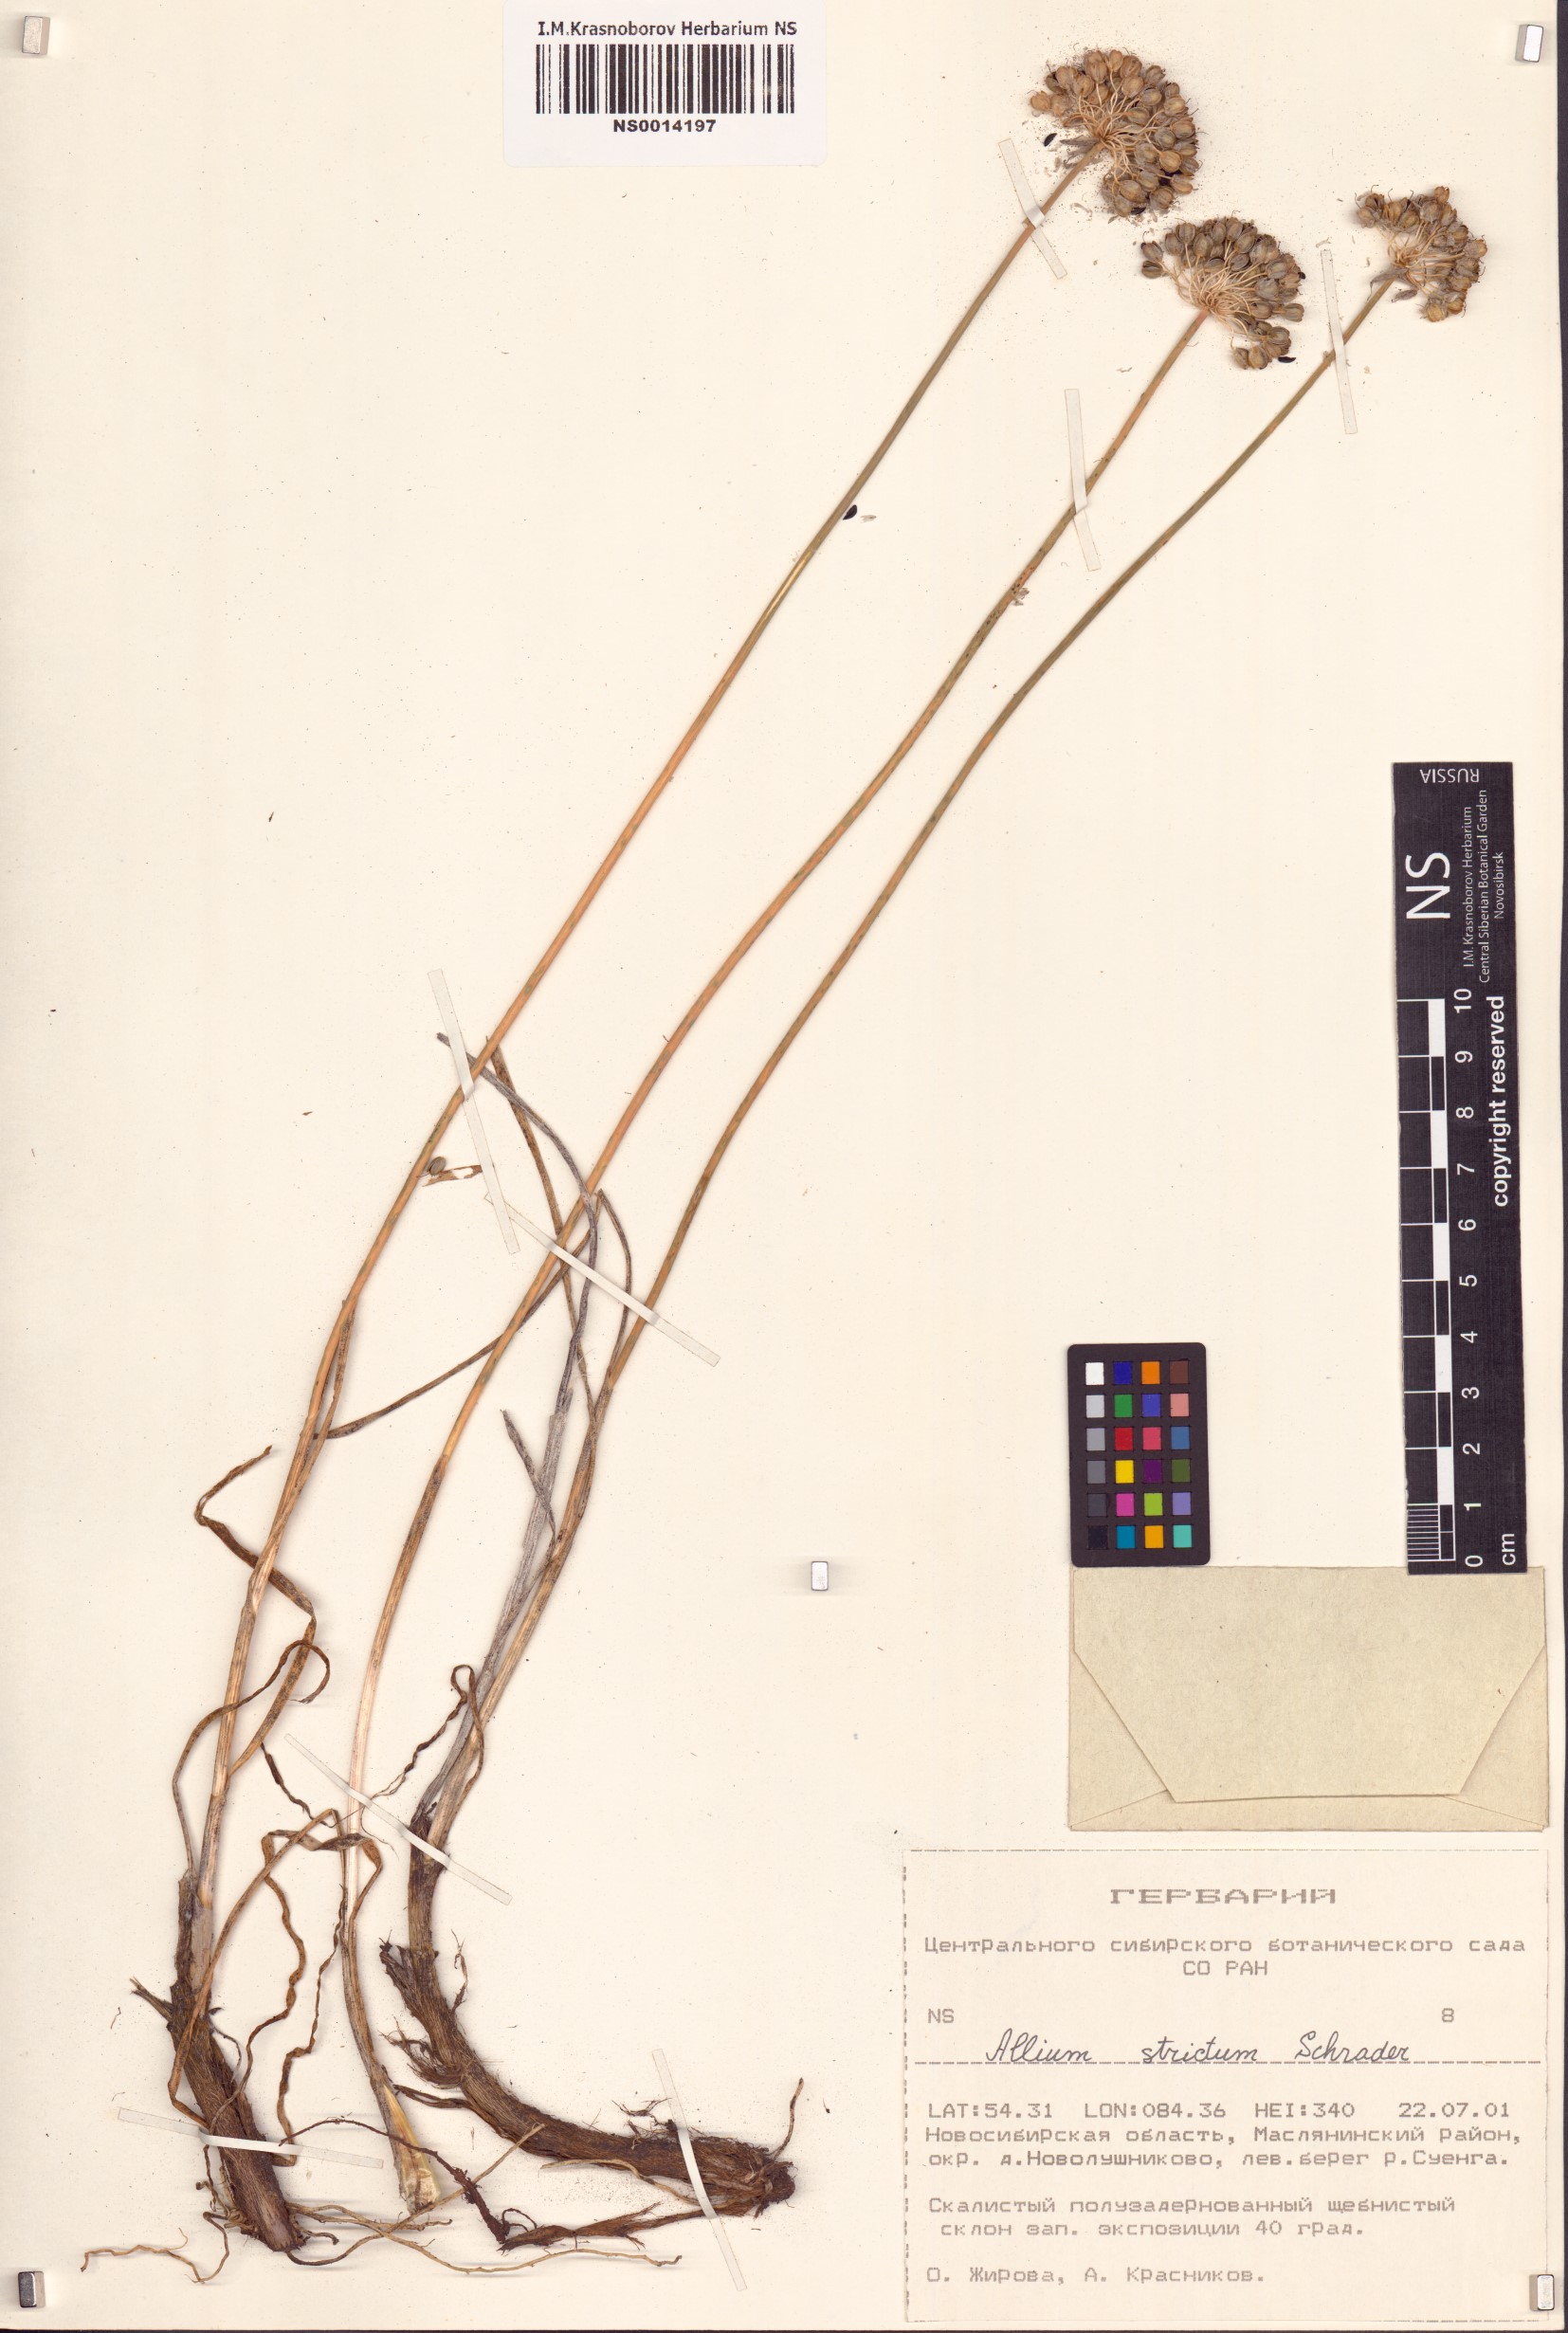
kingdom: Plantae
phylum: Tracheophyta
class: Liliopsida
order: Asparagales
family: Amaryllidaceae
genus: Allium
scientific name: Allium strictum
